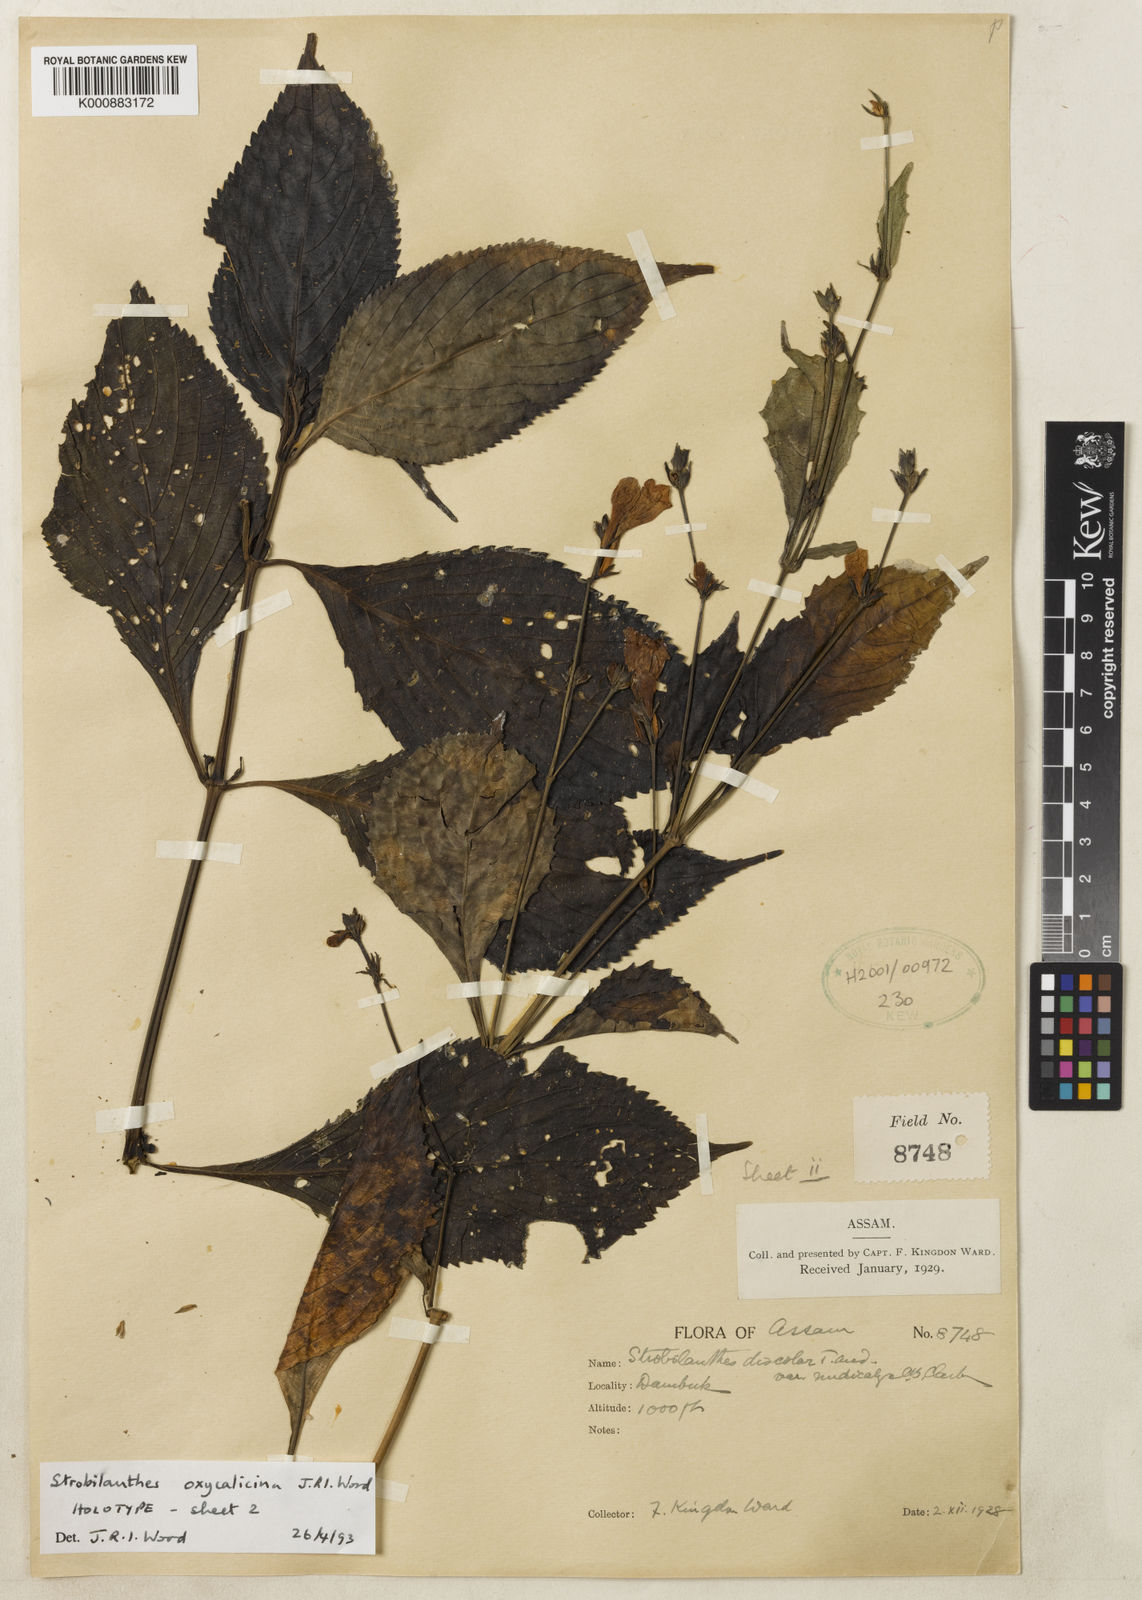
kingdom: Plantae
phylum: Tracheophyta
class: Magnoliopsida
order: Lamiales
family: Acanthaceae
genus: Strobilanthes
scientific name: Strobilanthes oxycalycina
